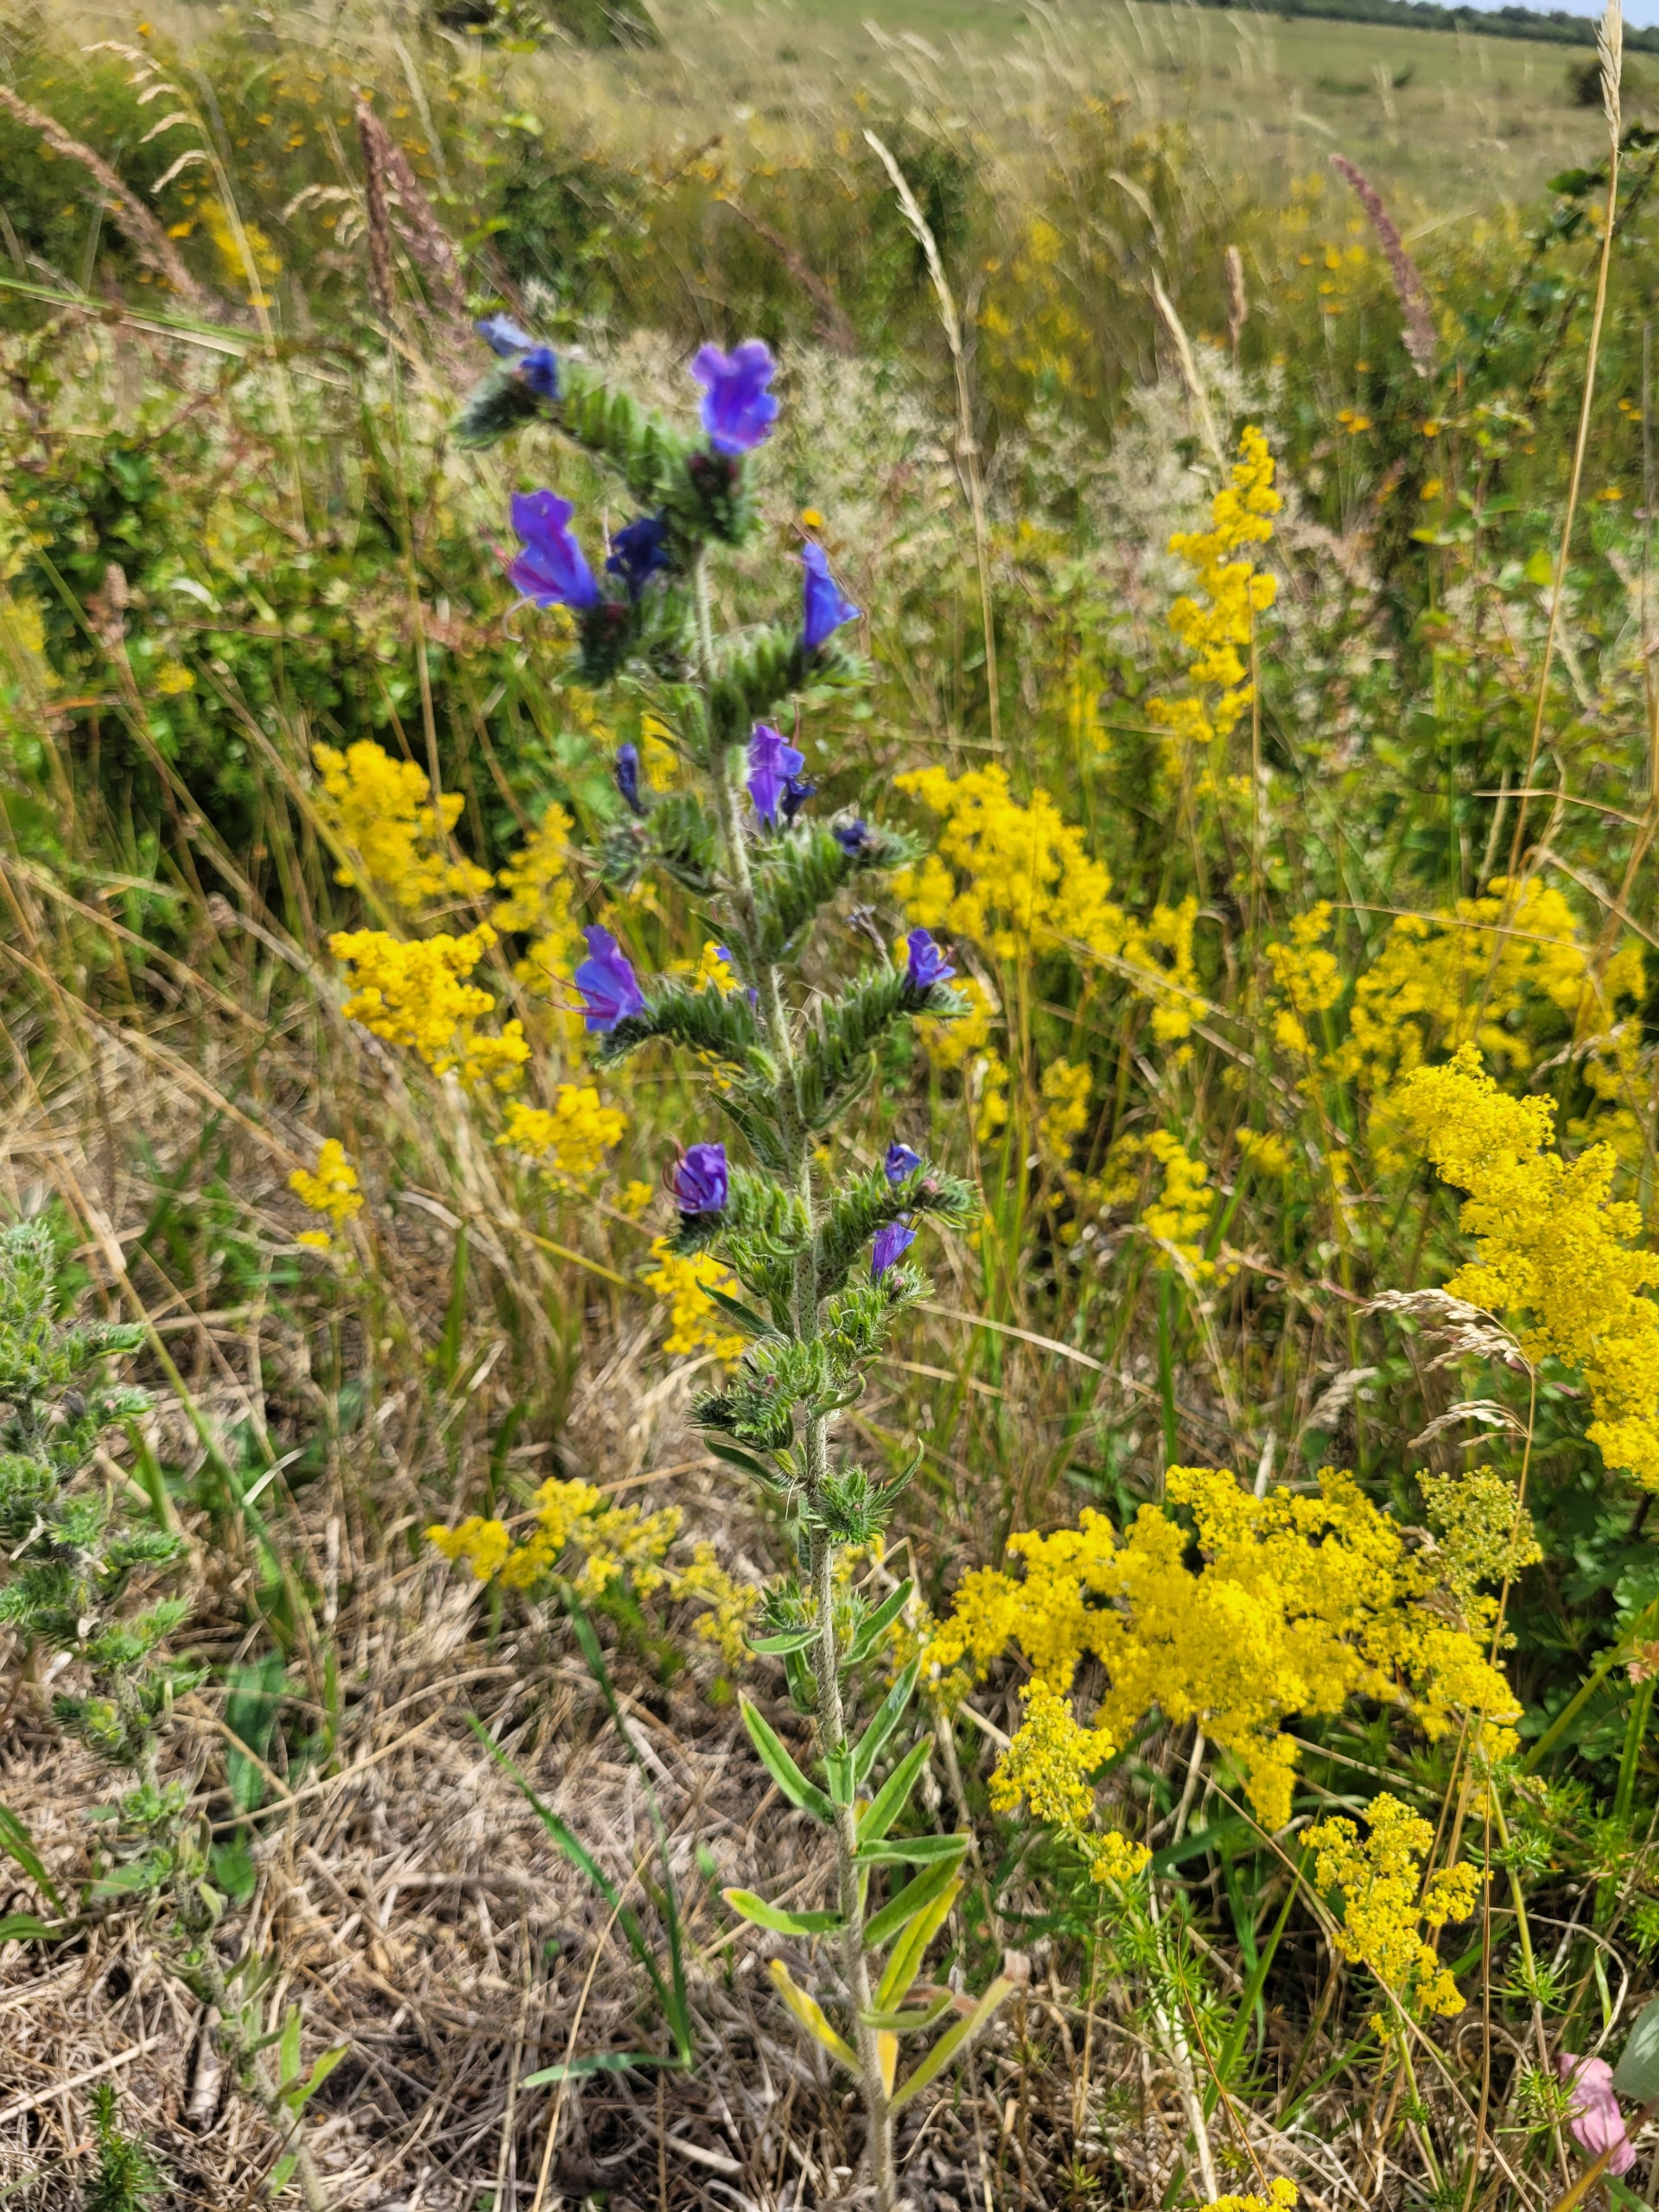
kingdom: Plantae
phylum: Tracheophyta
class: Magnoliopsida
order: Boraginales
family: Boraginaceae
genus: Echium
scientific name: Echium vulgare
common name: Slangehoved
